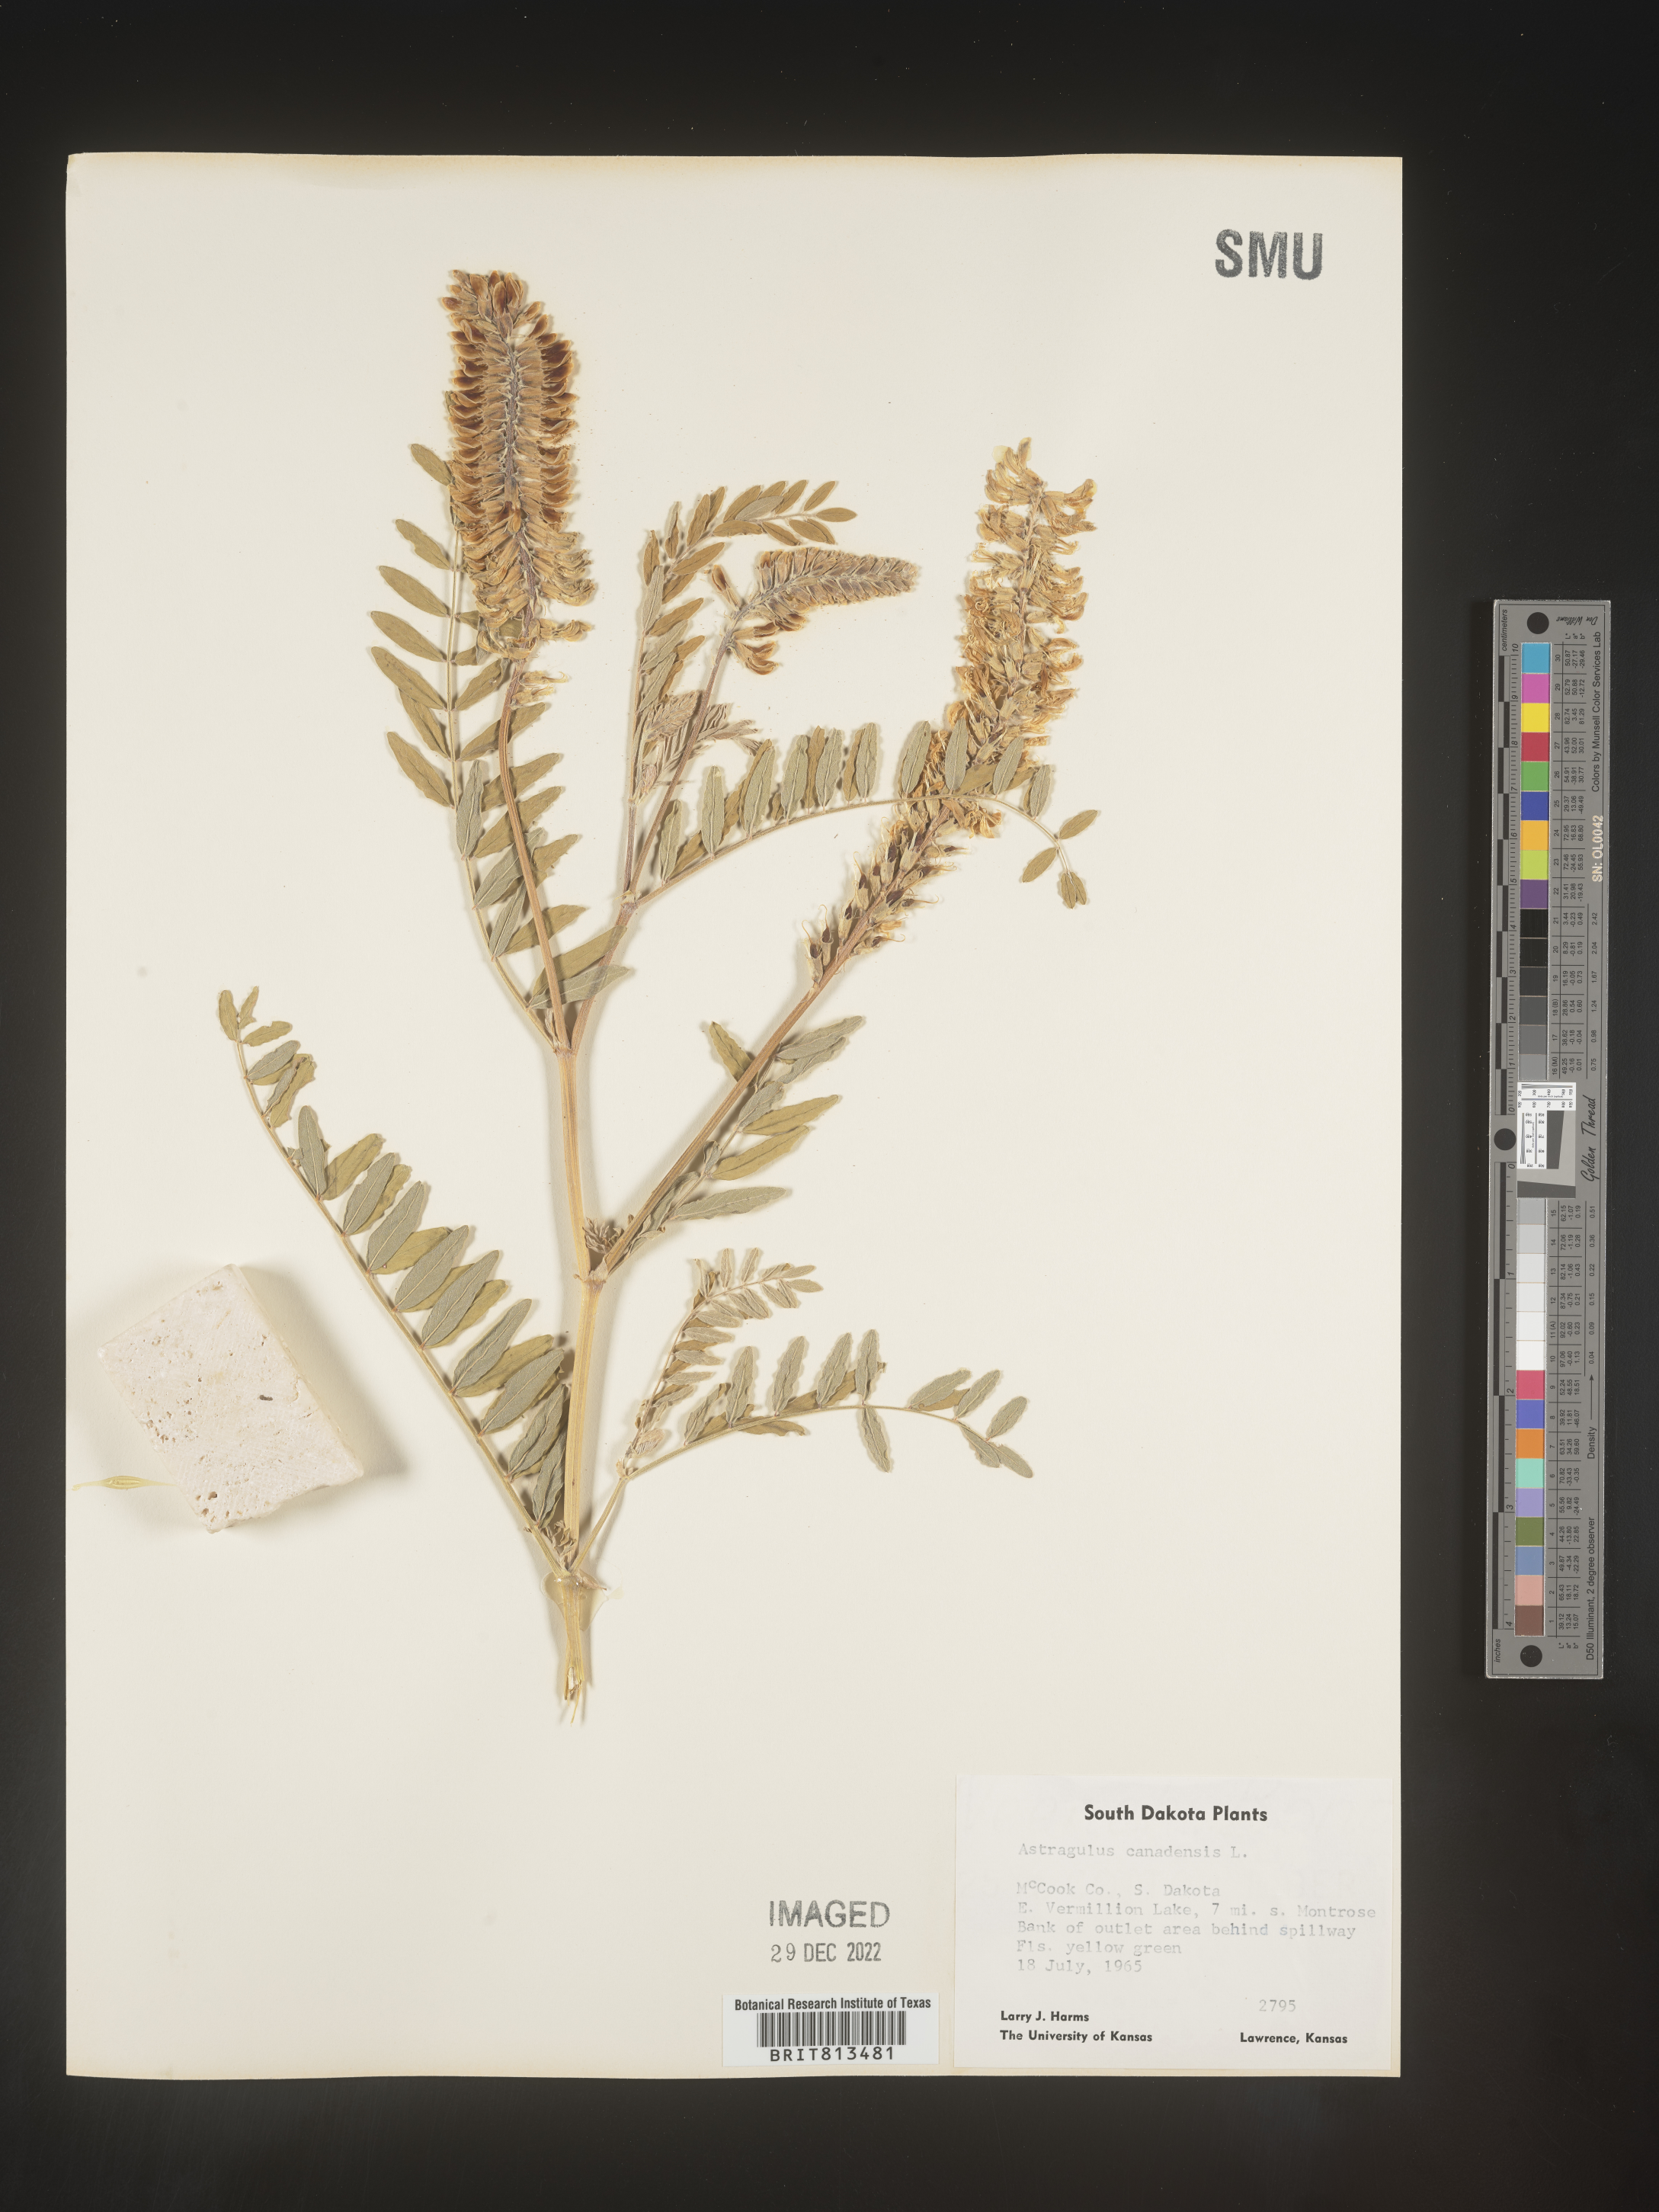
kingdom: Plantae
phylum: Tracheophyta
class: Magnoliopsida
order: Fabales
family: Fabaceae
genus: Astragalus
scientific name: Astragalus canadensis
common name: Canada milk-vetch
